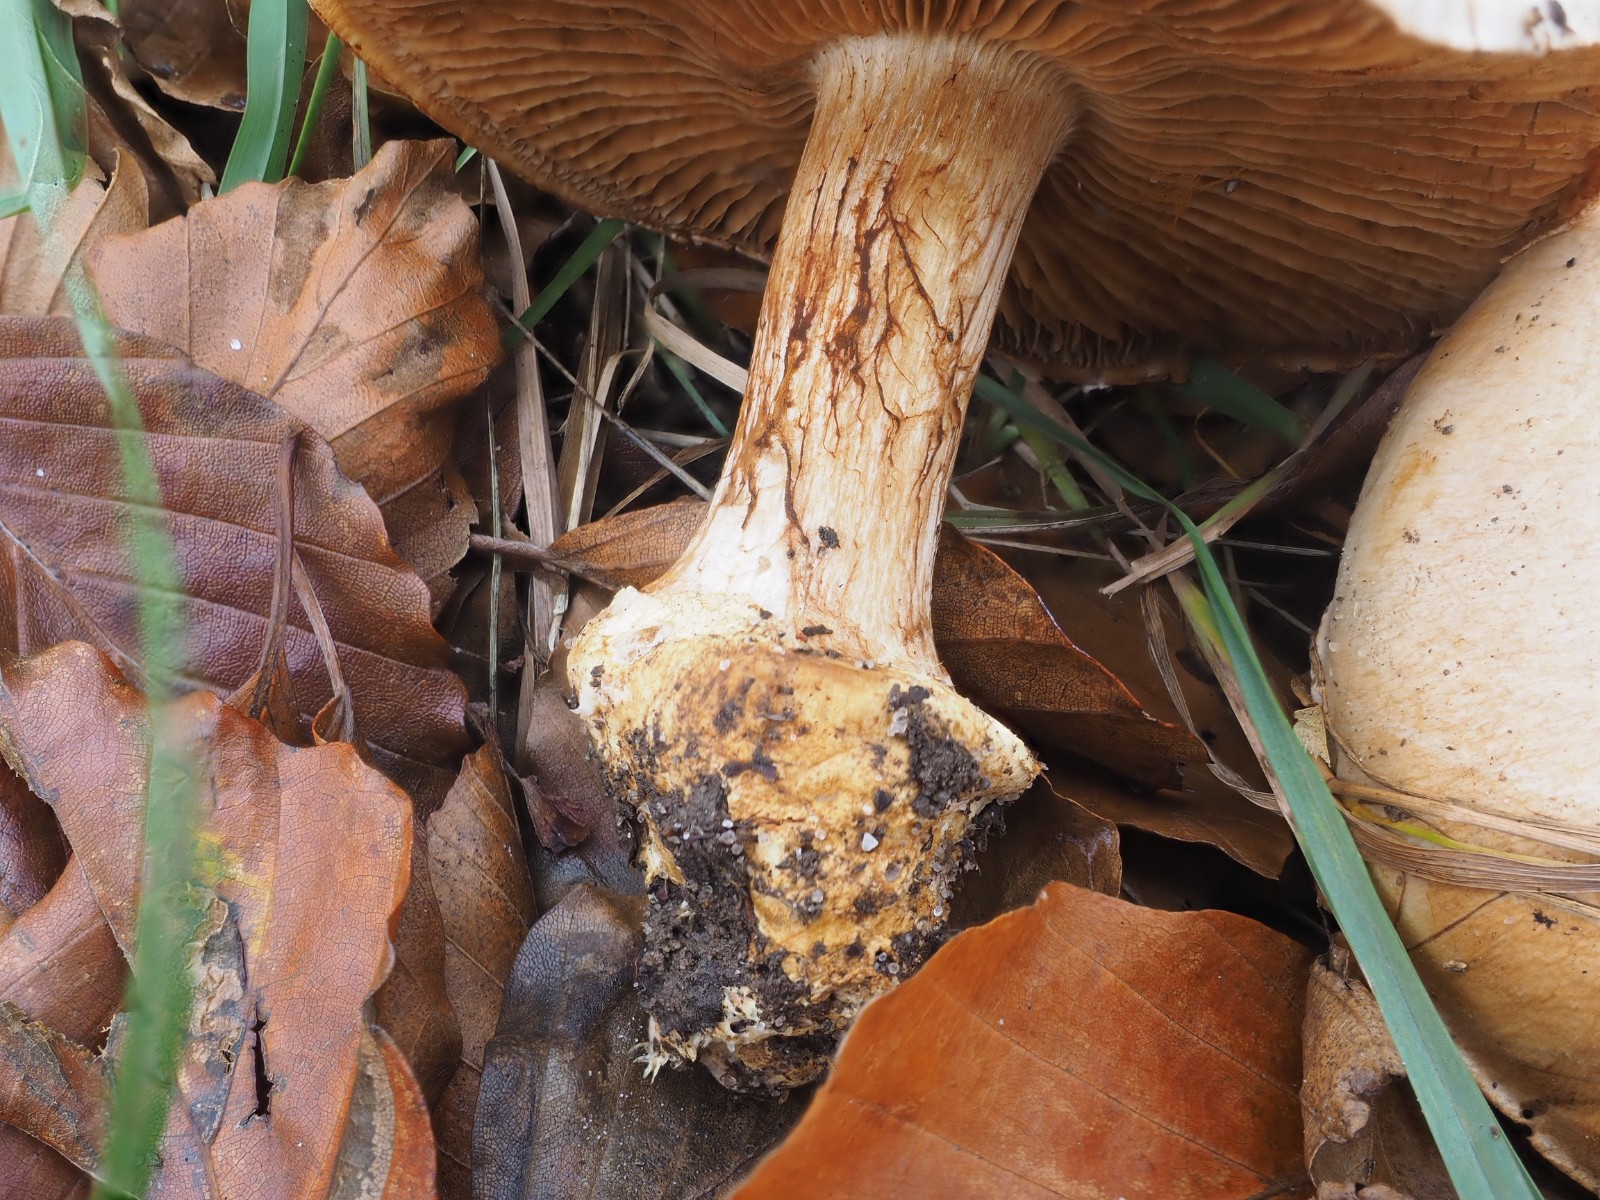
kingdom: Fungi
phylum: Basidiomycota
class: Agaricomycetes
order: Agaricales
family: Cortinariaceae
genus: Cortinarius
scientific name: Cortinarius foetens
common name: stribet slørhat
